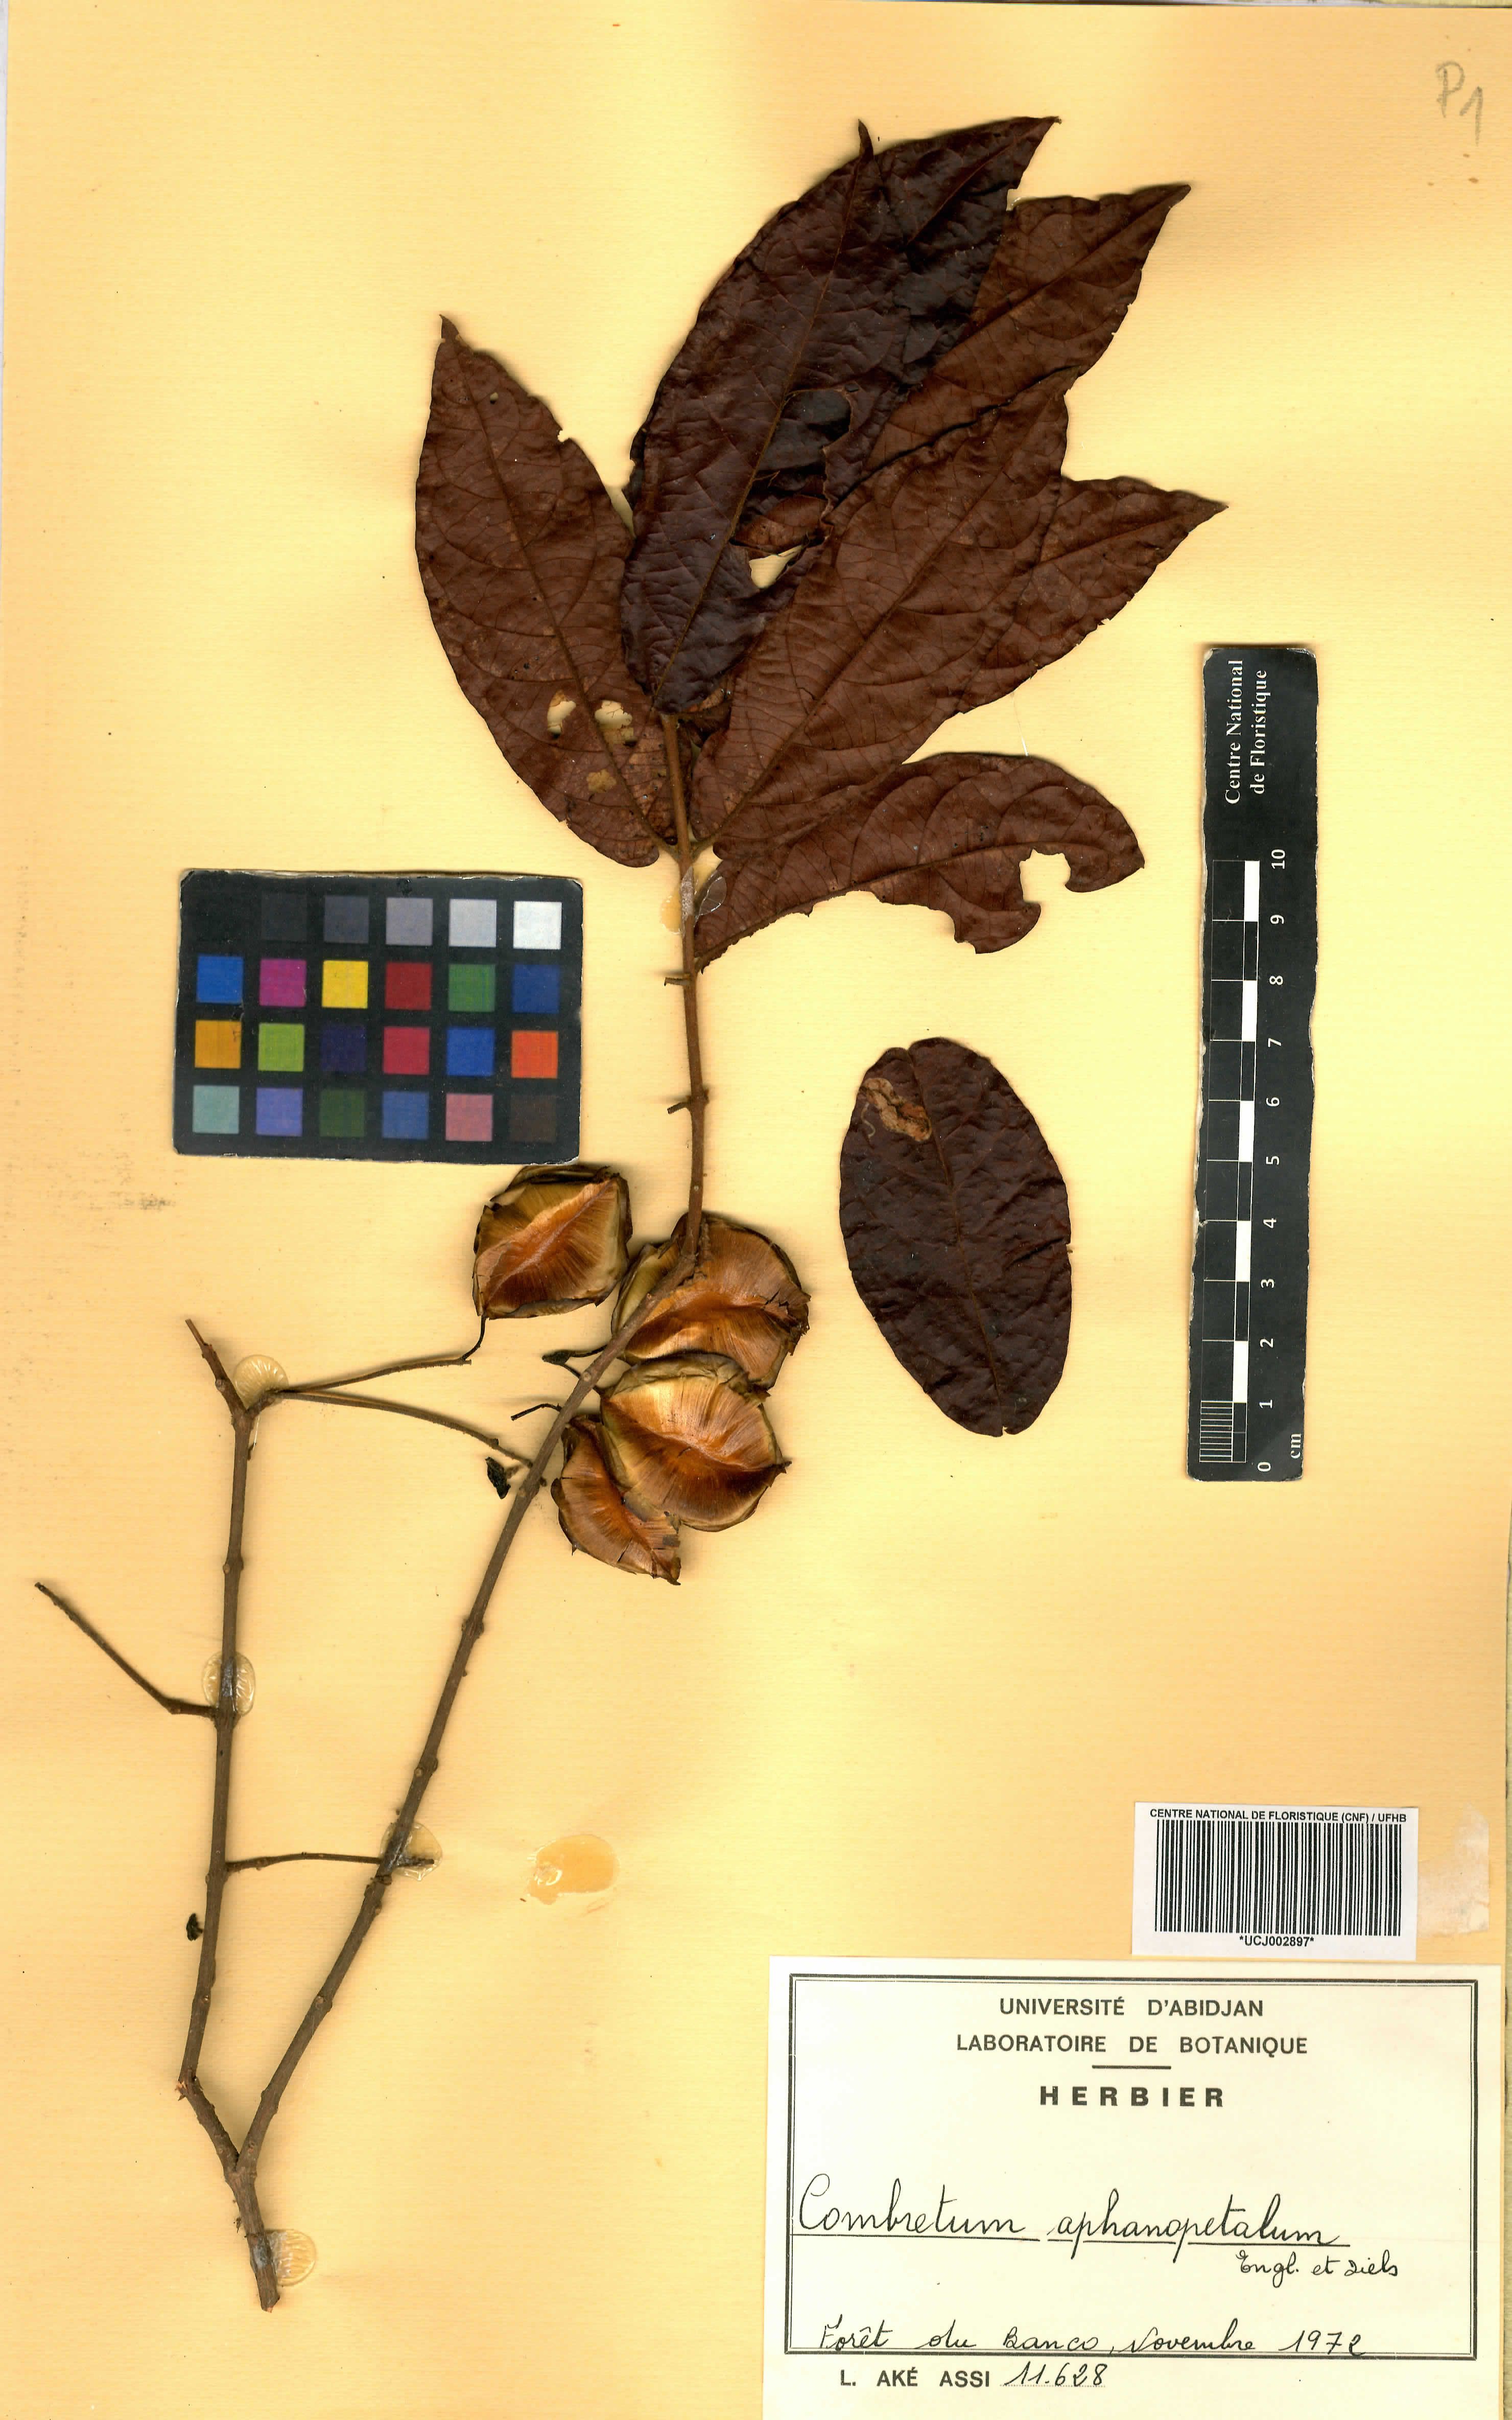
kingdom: Plantae
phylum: Tracheophyta
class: Magnoliopsida
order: Myrtales
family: Combretaceae
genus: Combretum
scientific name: Combretum adenogonium
